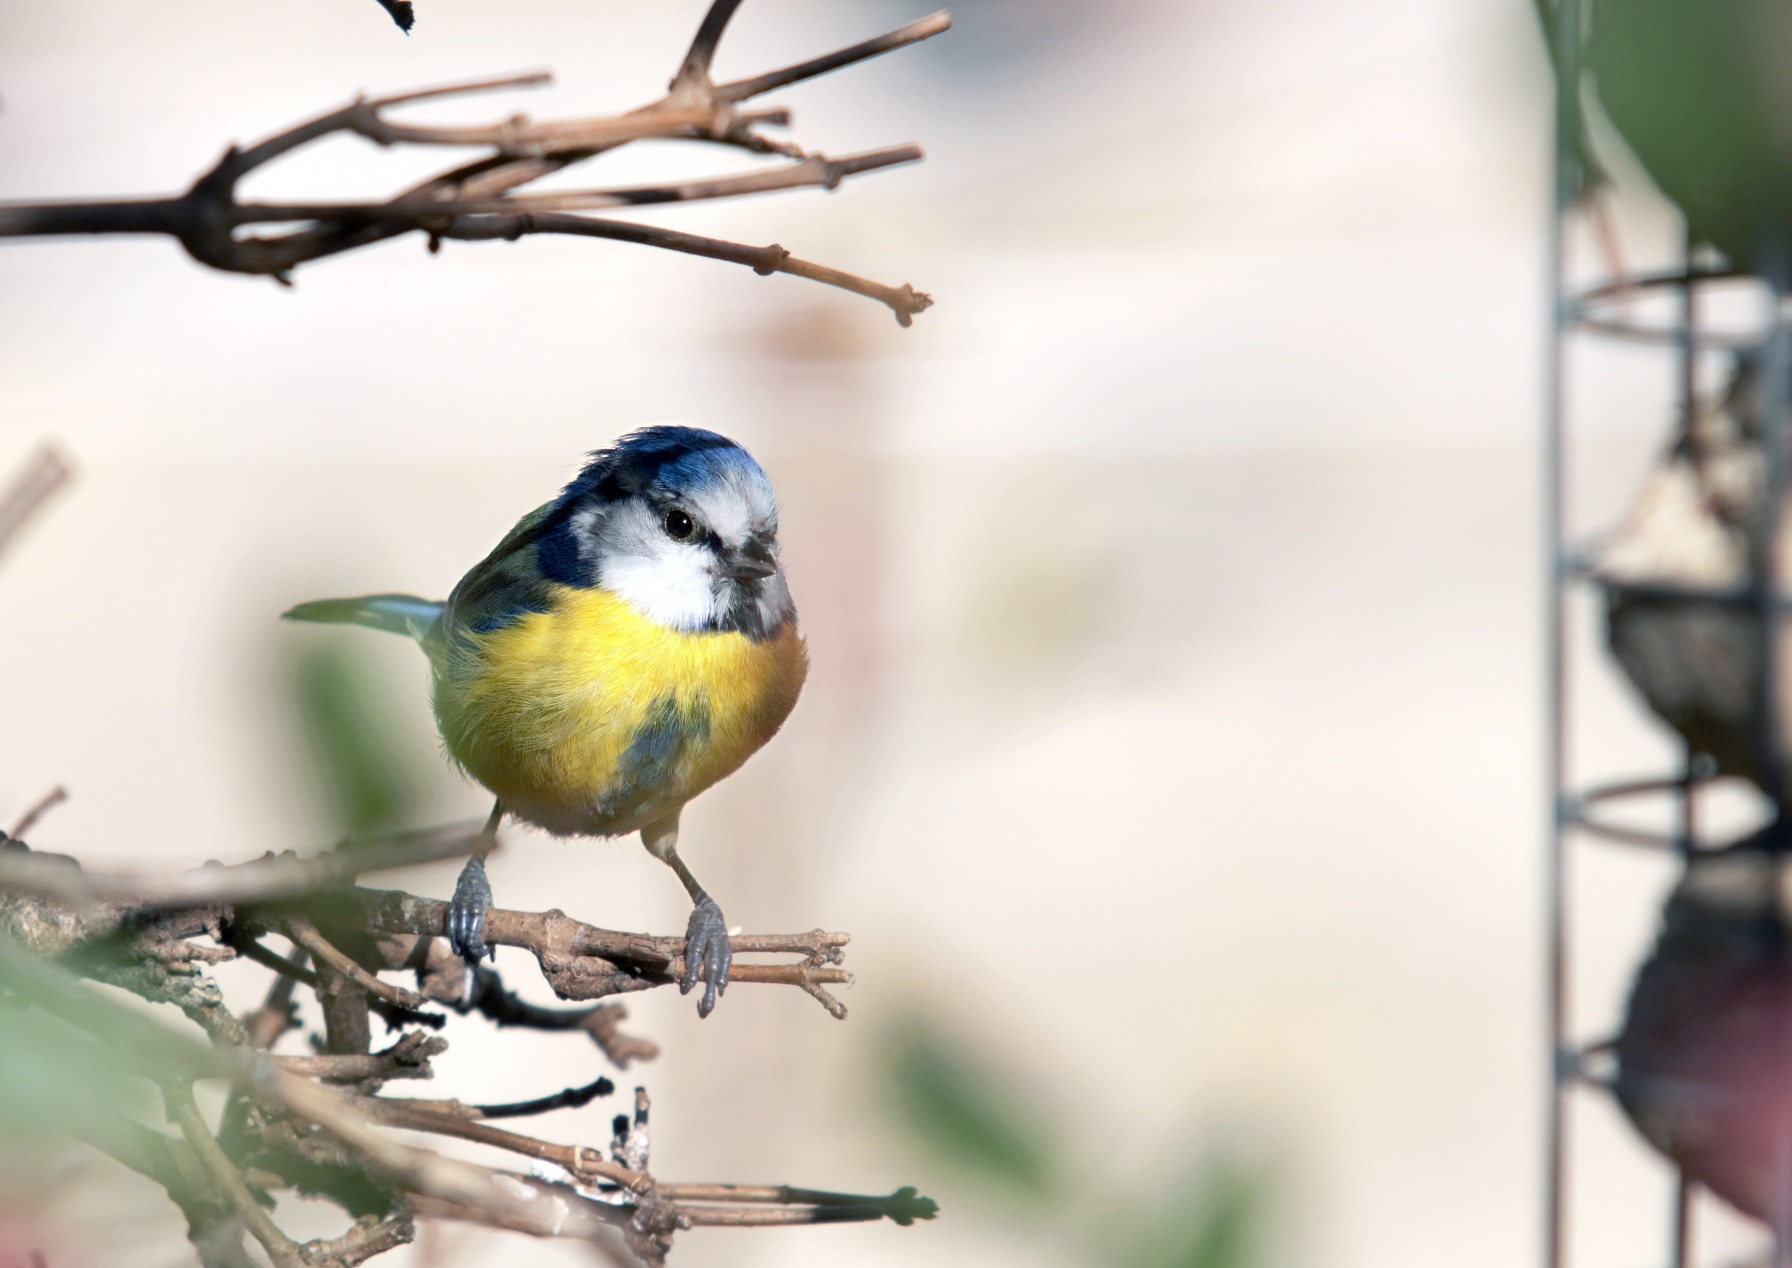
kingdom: Animalia
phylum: Chordata
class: Aves
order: Passeriformes
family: Paridae
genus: Cyanistes
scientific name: Cyanistes caeruleus
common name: Blåmejse
